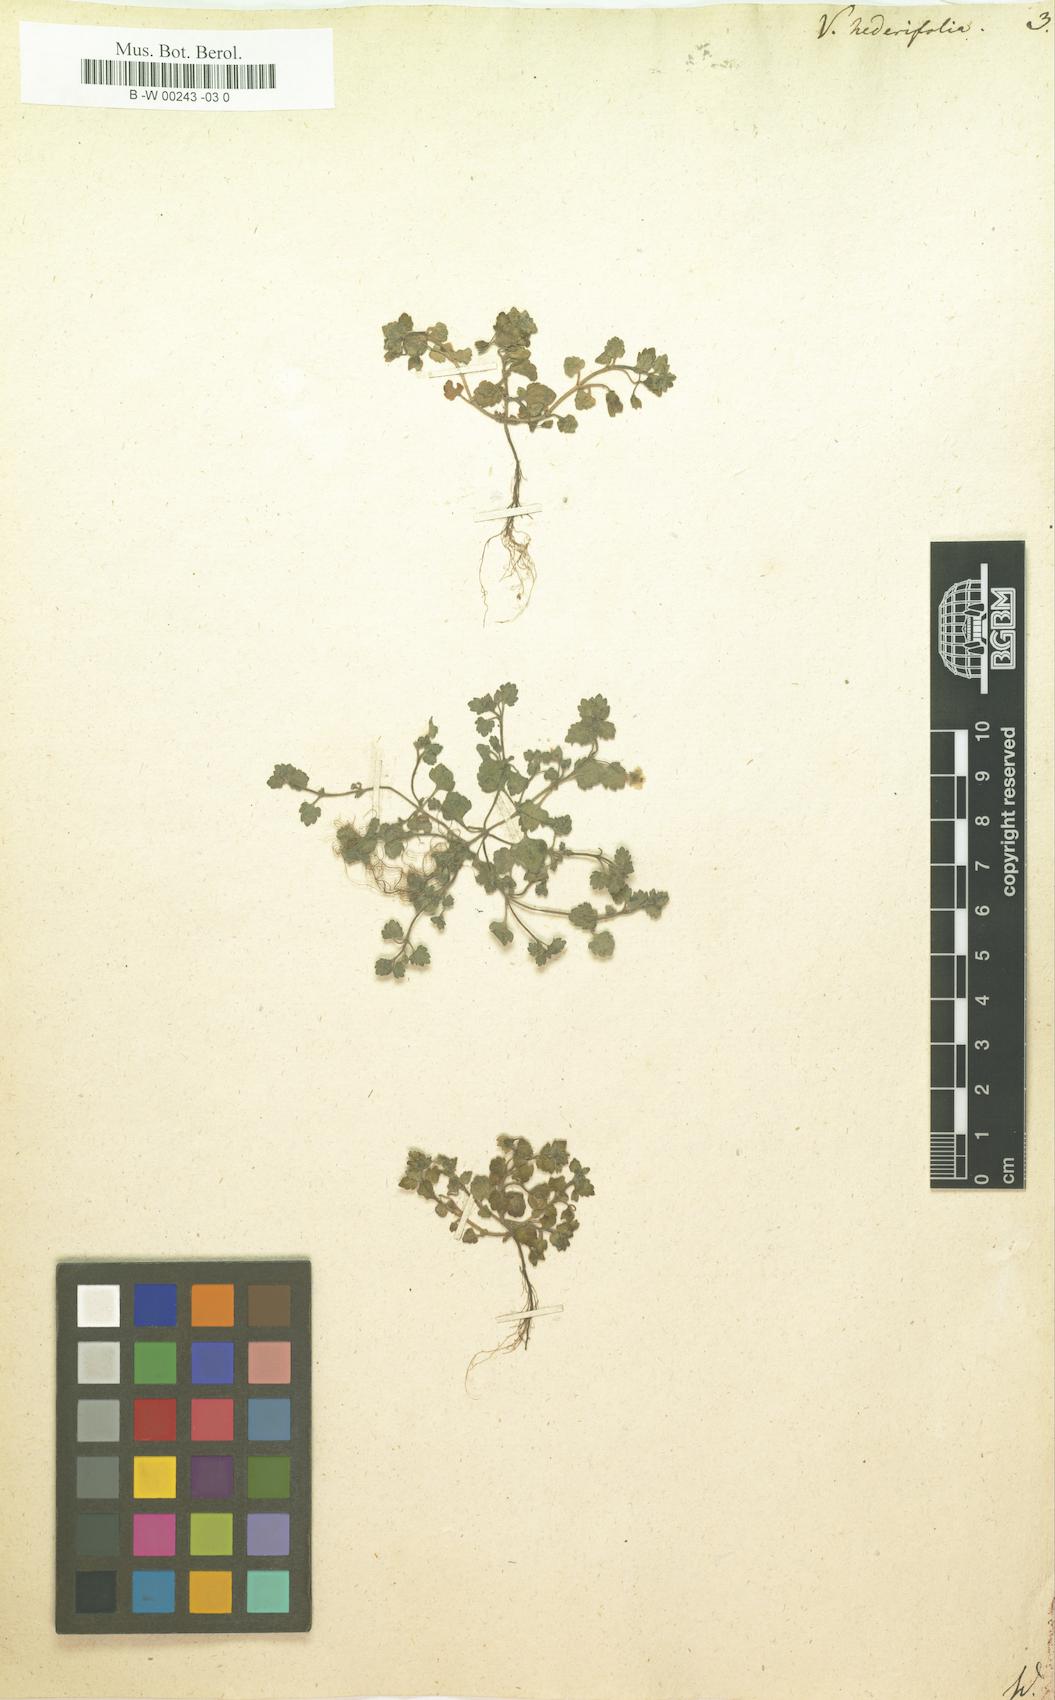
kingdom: Plantae
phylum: Tracheophyta
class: Magnoliopsida
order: Lamiales
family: Plantaginaceae
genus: Veronica
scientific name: Veronica hederifolia
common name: Ivy-leaved speedwell
